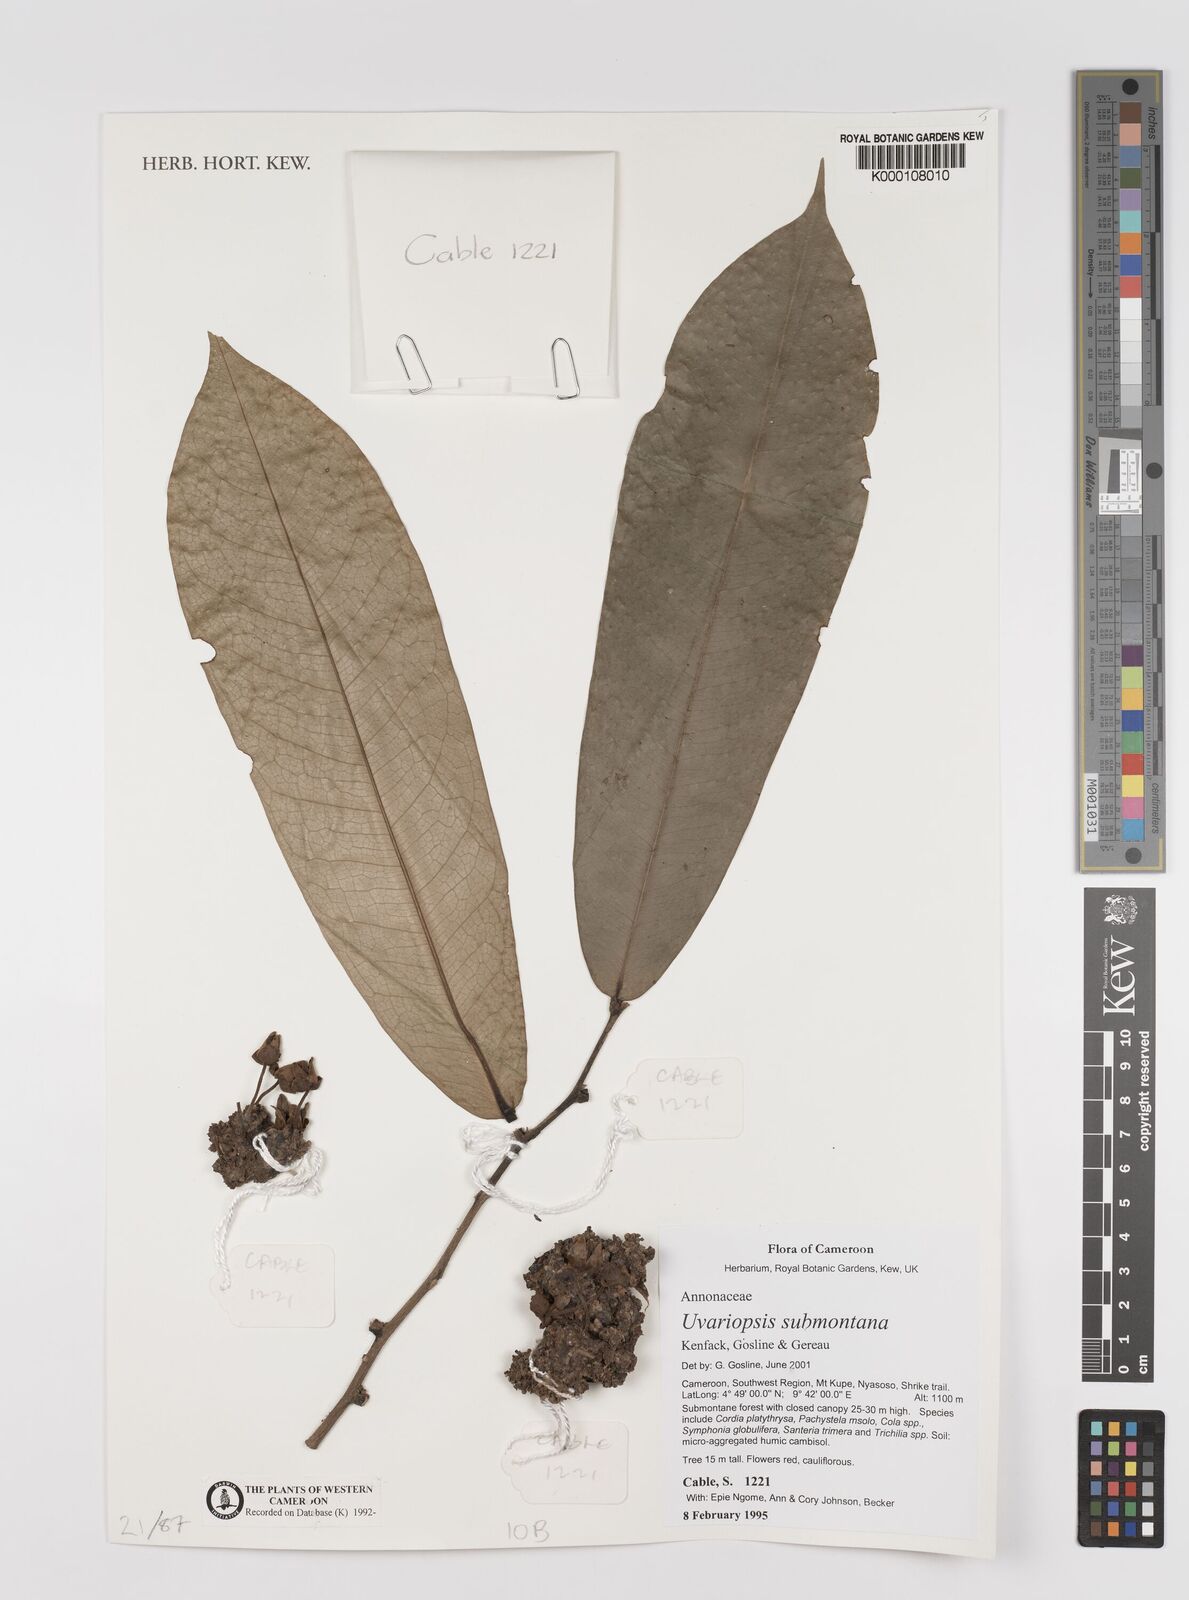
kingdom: Plantae
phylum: Tracheophyta
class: Magnoliopsida
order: Magnoliales
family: Annonaceae
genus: Uvariopsis
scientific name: Uvariopsis submontana
